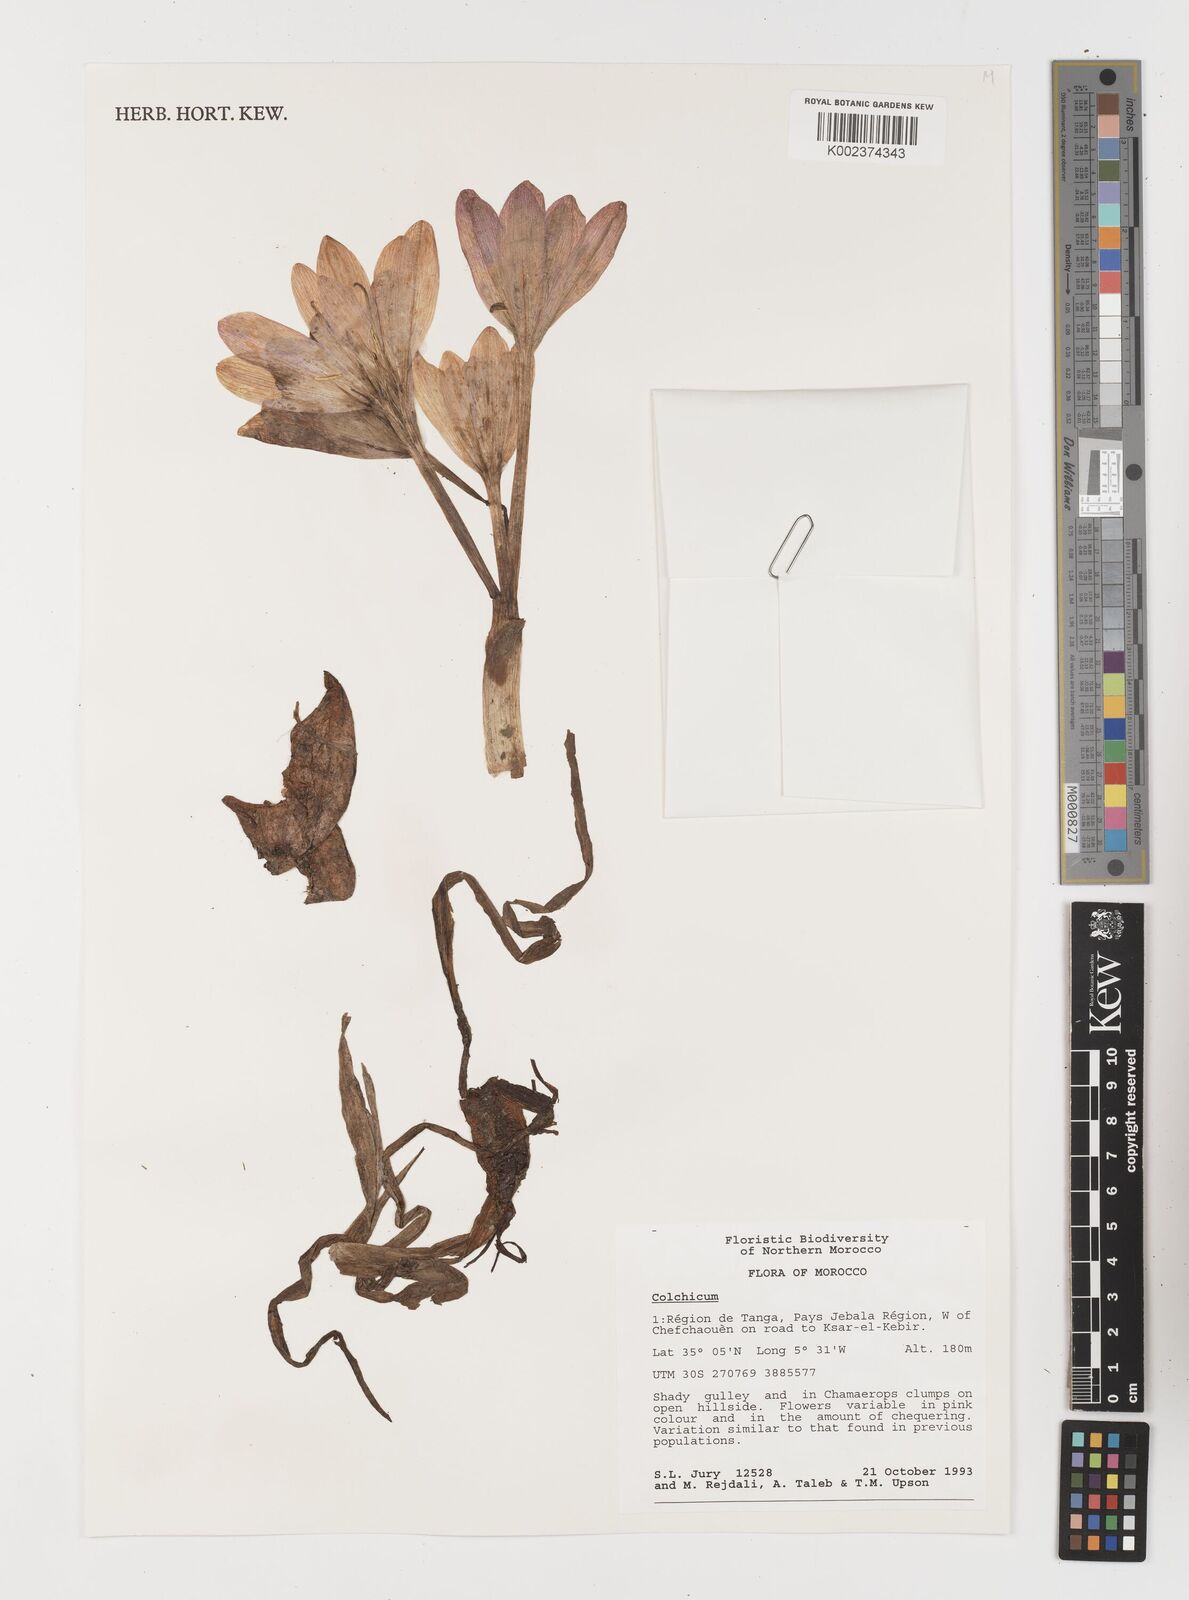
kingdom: Plantae
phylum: Tracheophyta
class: Liliopsida
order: Liliales
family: Colchicaceae
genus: Colchicum
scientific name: Colchicum
